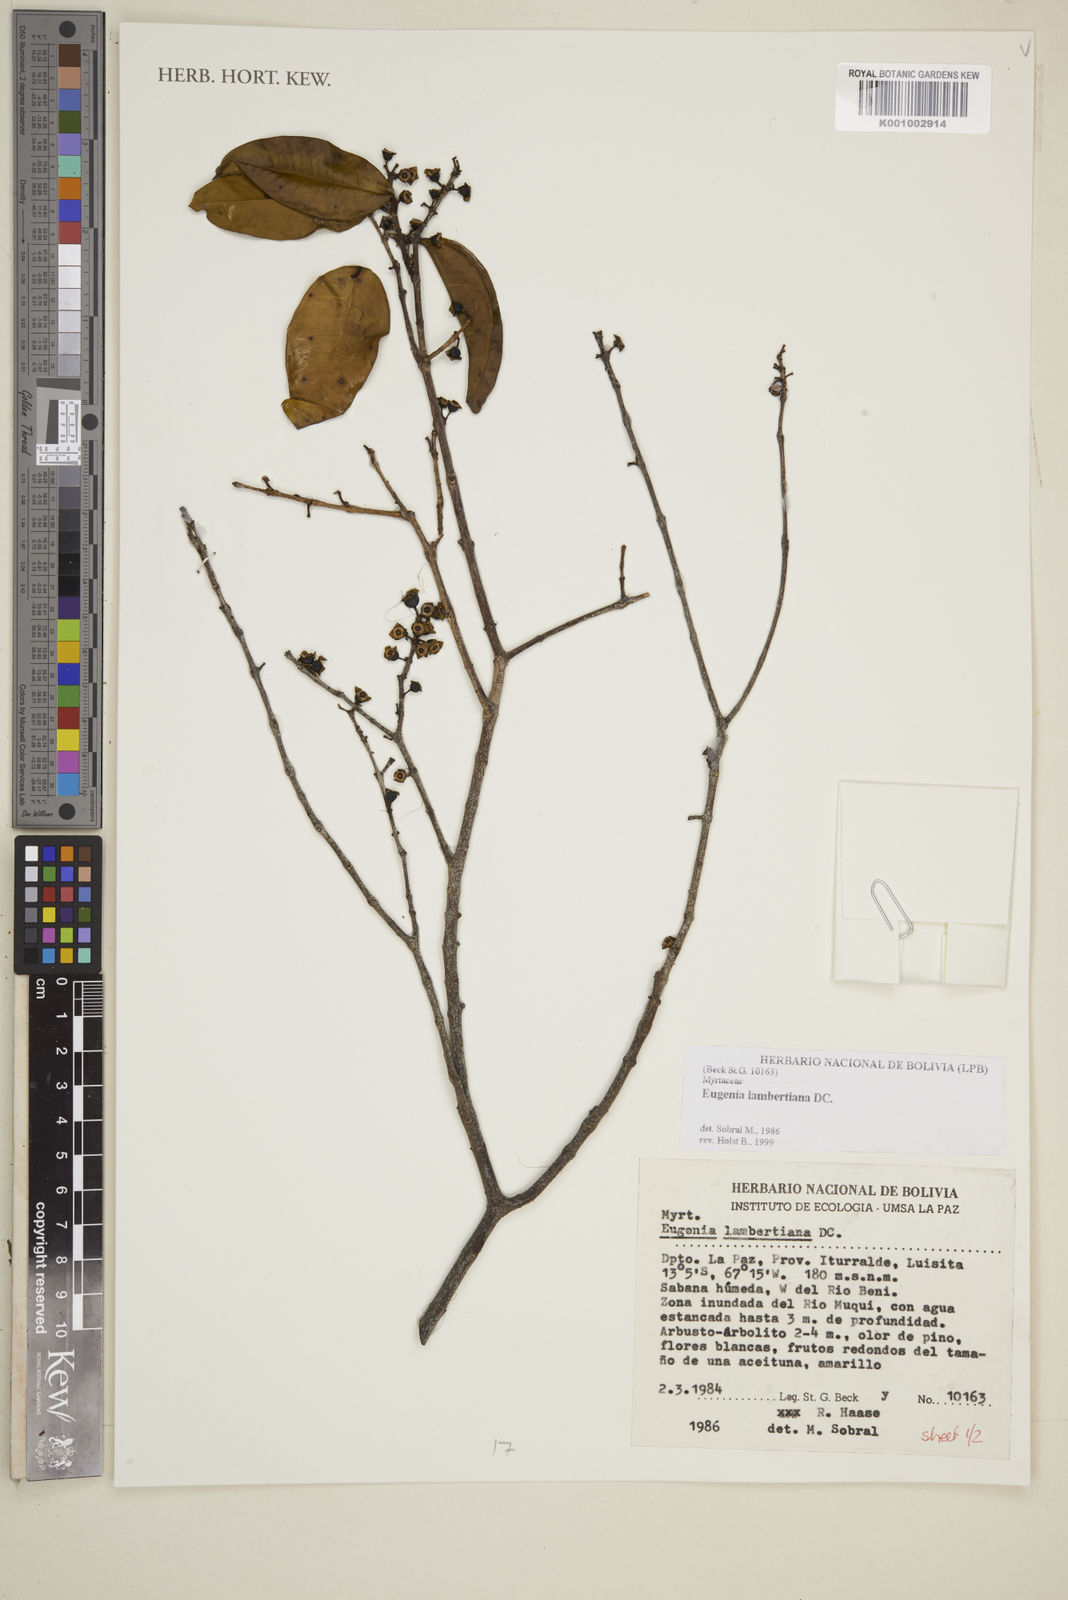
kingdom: Plantae
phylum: Tracheophyta
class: Magnoliopsida
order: Myrtales
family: Myrtaceae
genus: Eugenia
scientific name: Eugenia lambertiana
